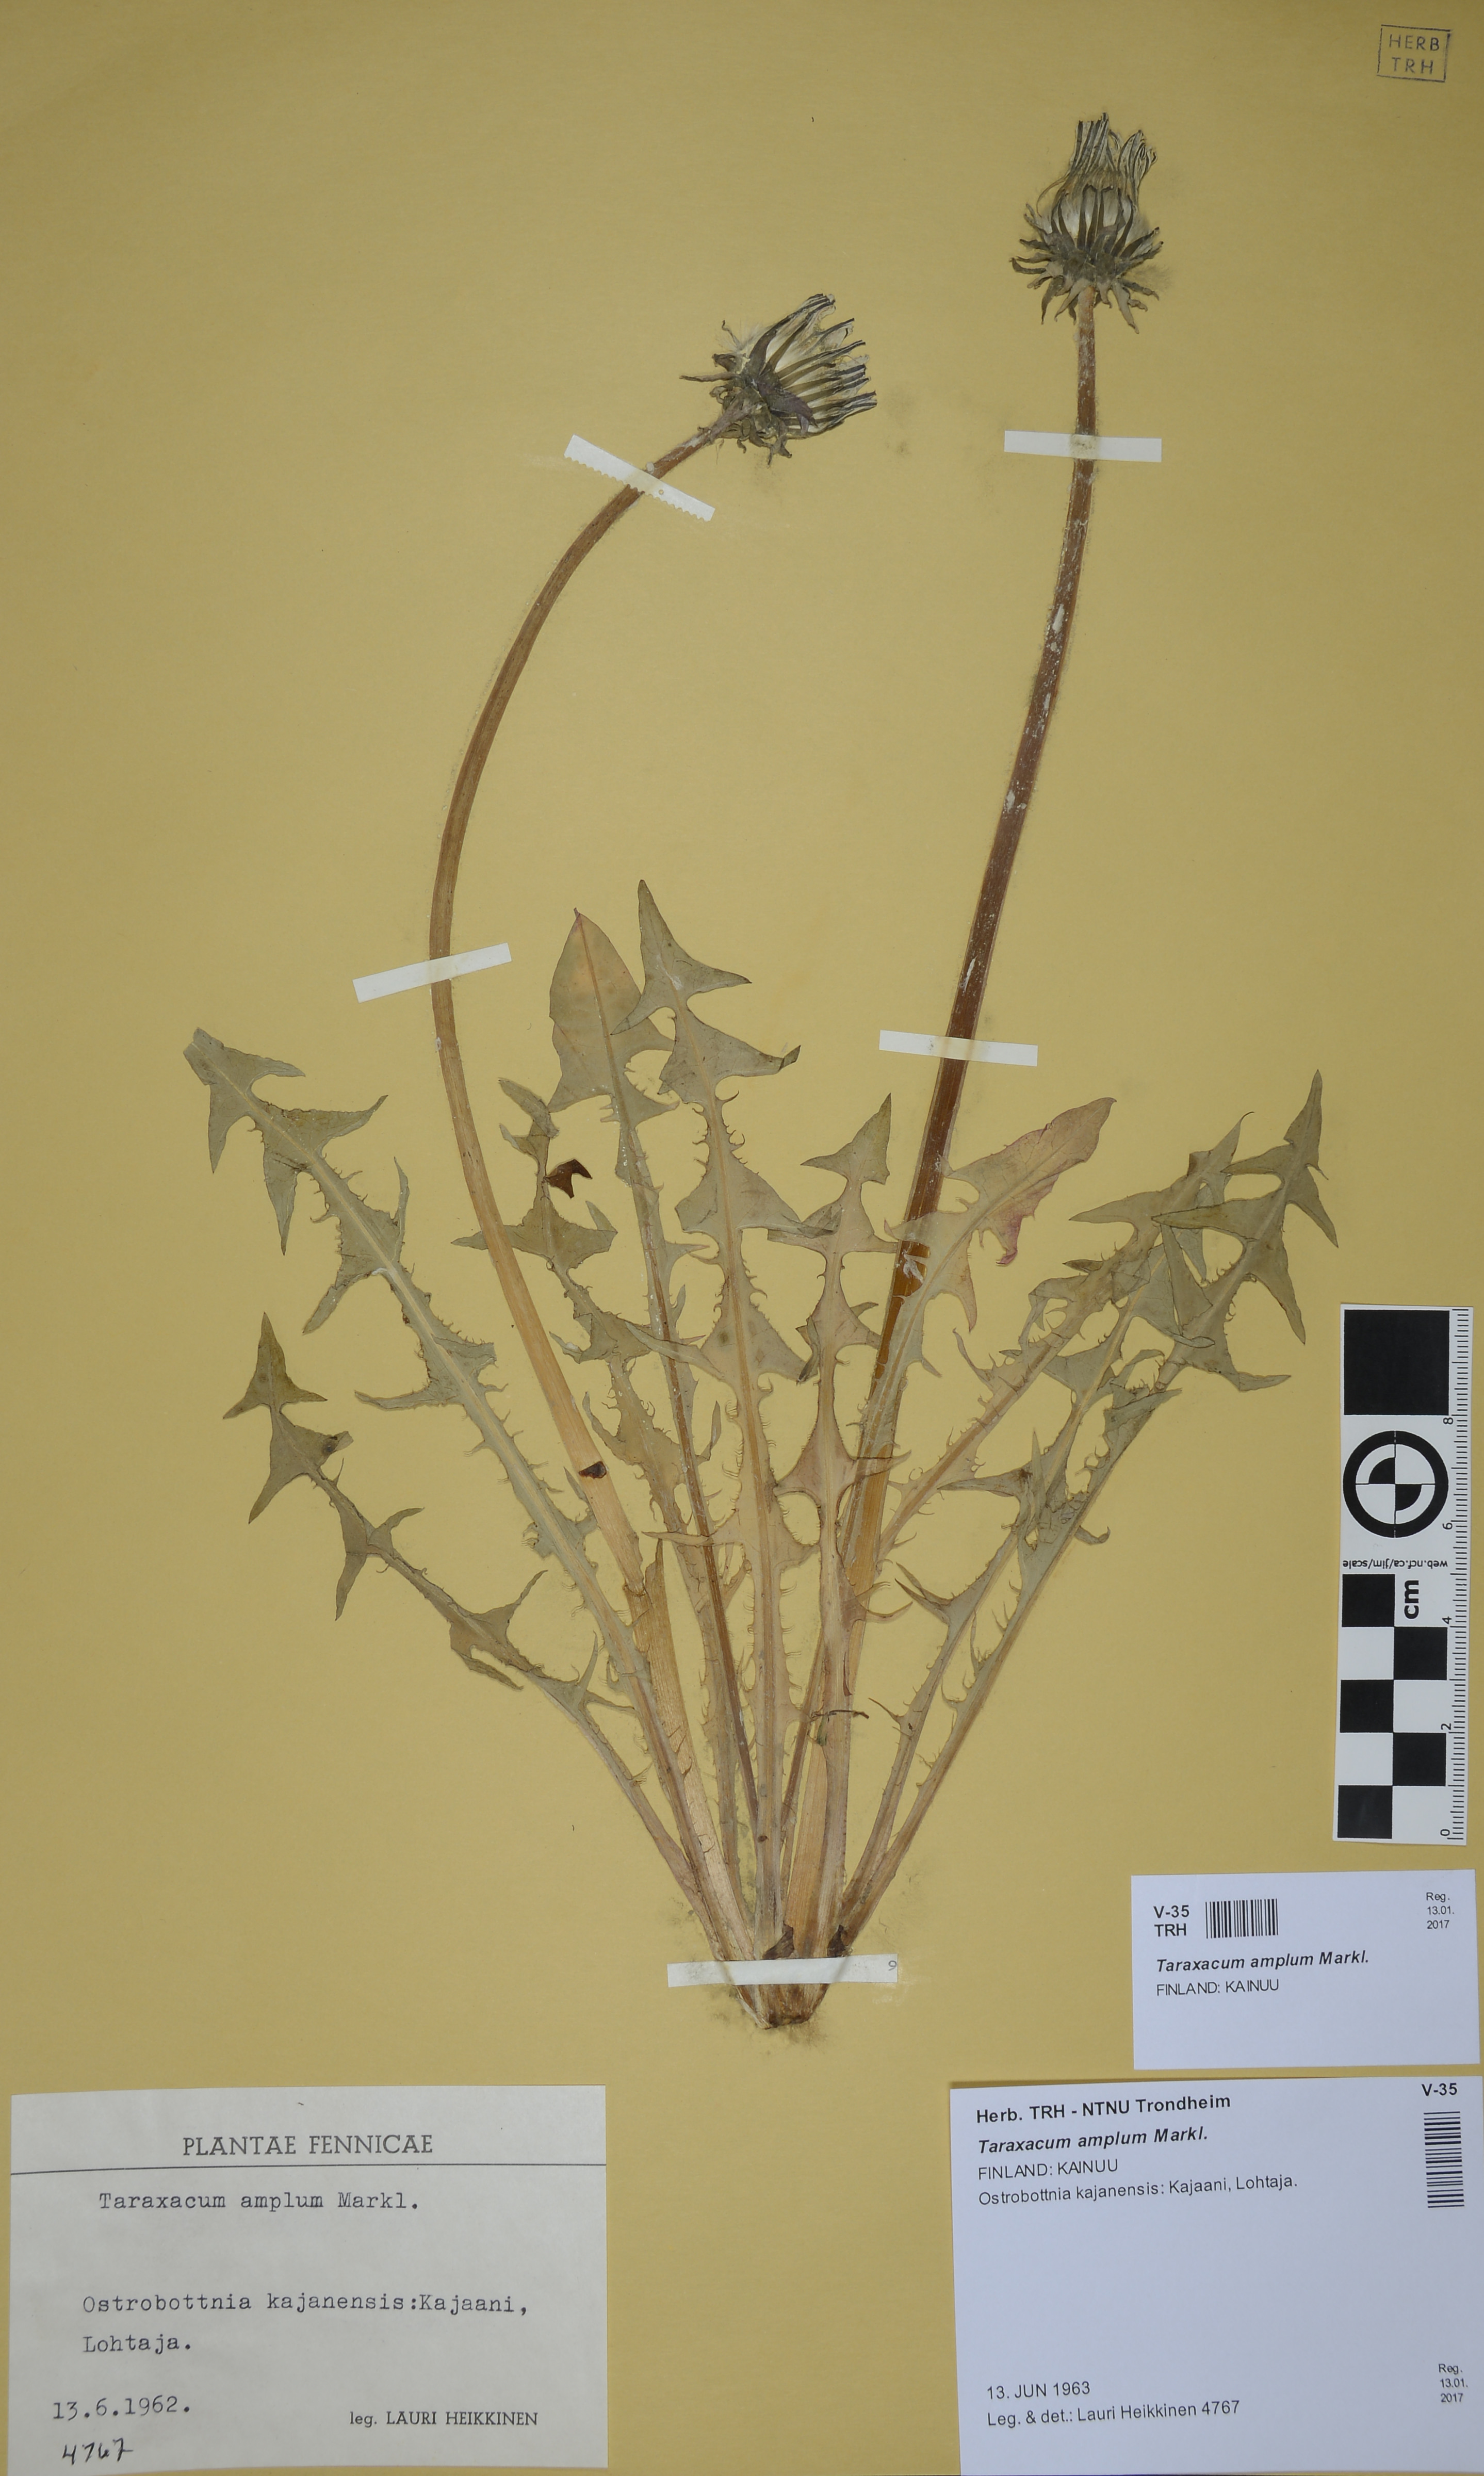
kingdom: Plantae
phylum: Tracheophyta
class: Magnoliopsida
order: Asterales
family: Asteraceae
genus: Taraxacum
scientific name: Taraxacum amplum
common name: Toothed dandelion
